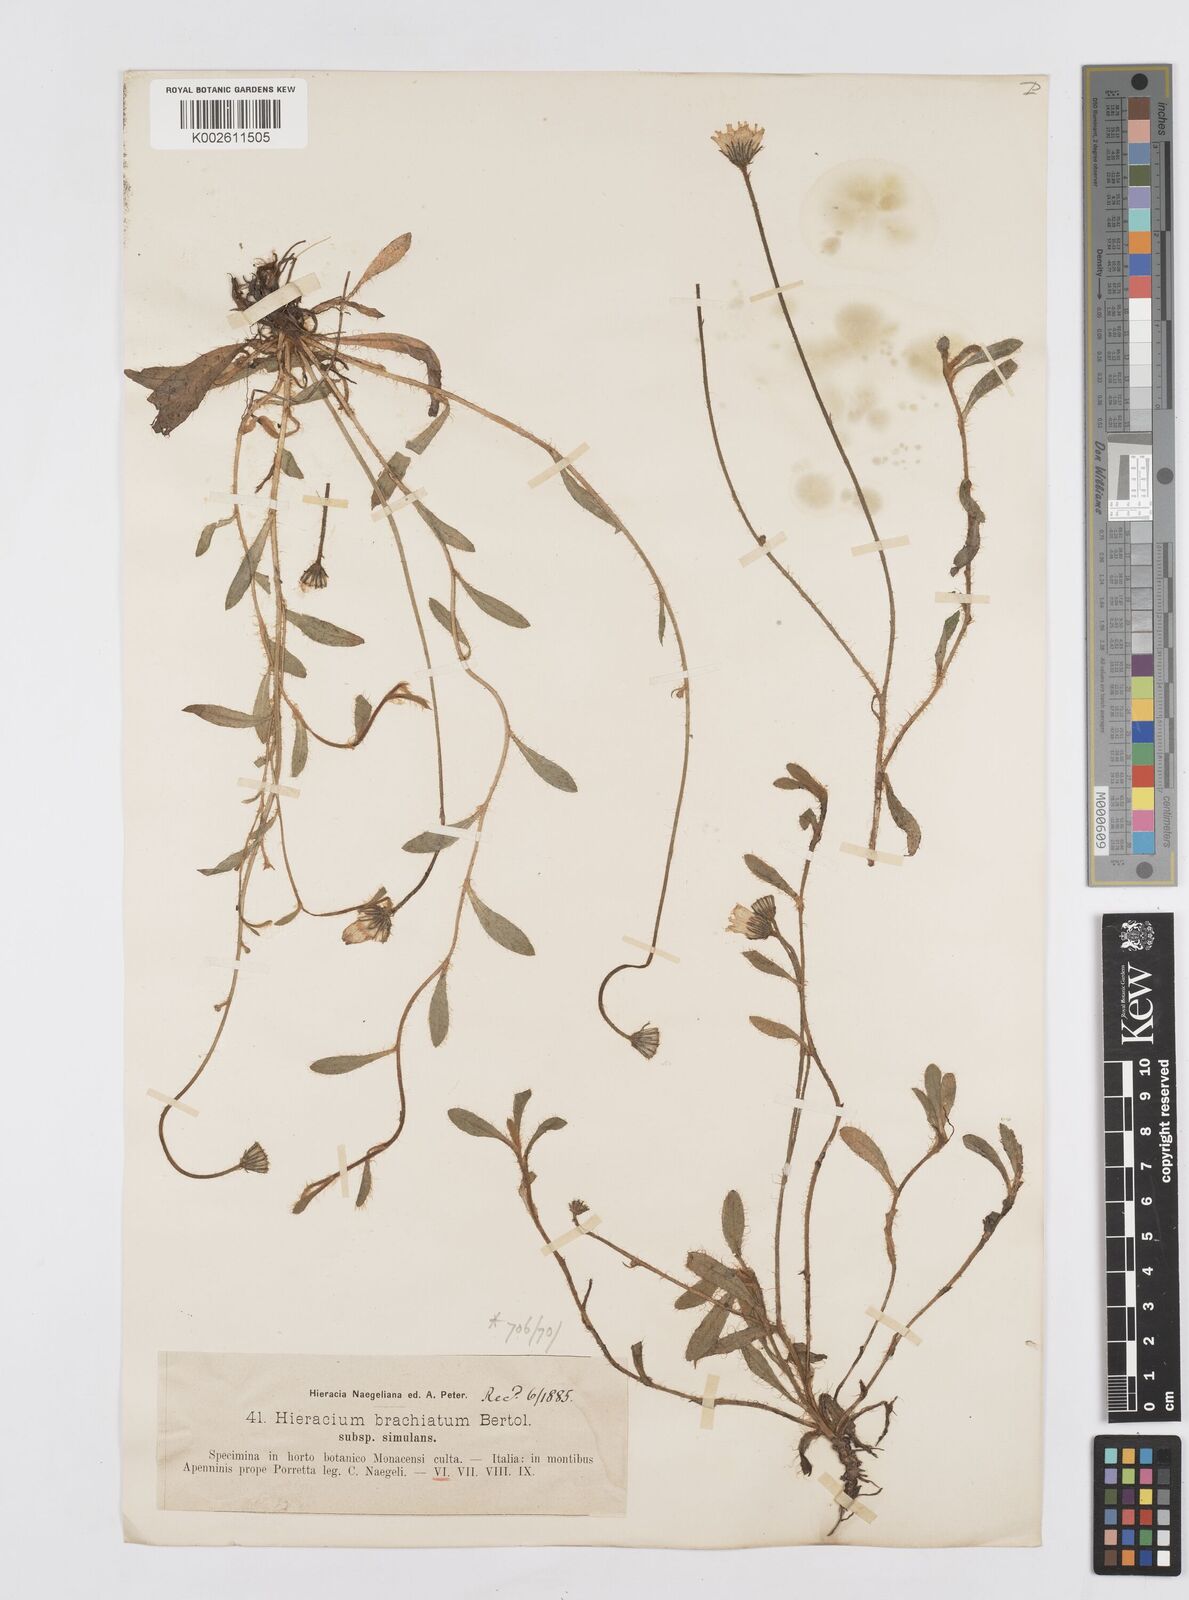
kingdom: Plantae
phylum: Tracheophyta
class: Magnoliopsida
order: Asterales
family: Asteraceae
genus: Pilosella
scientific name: Pilosella acutifolia
